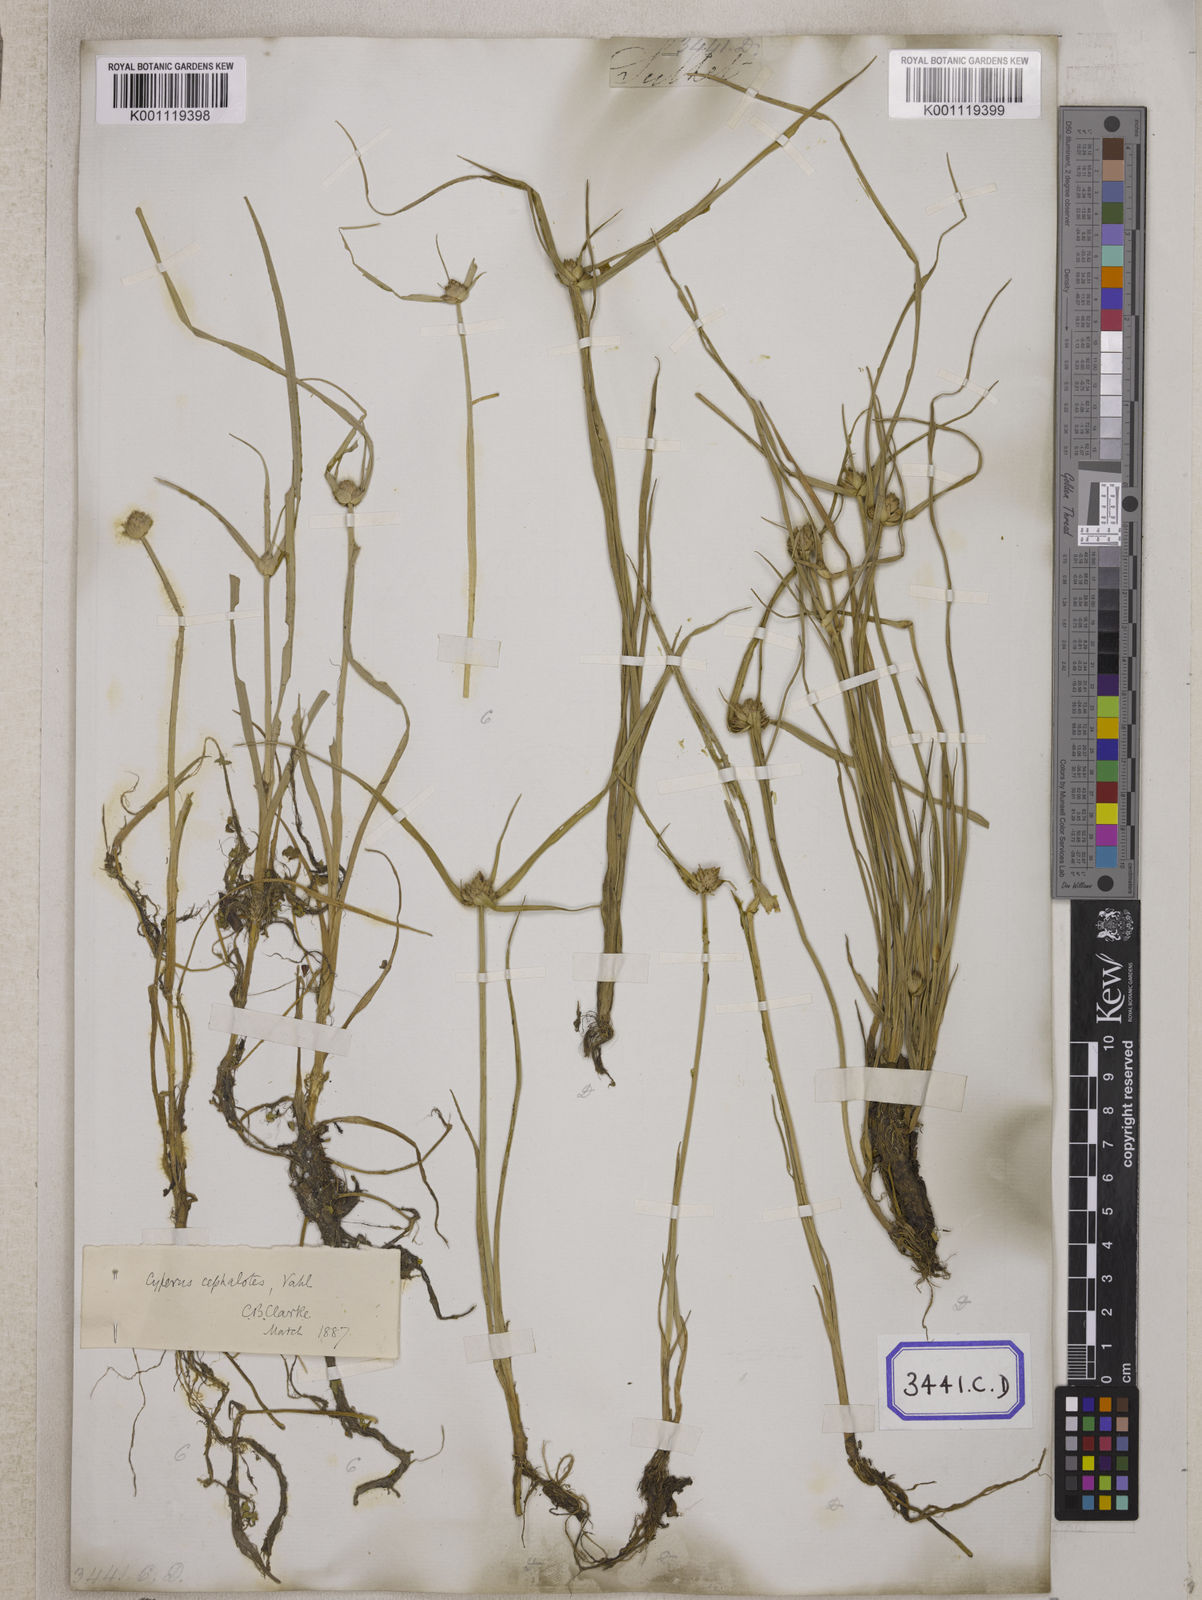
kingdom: Plantae
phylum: Tracheophyta
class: Liliopsida
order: Poales
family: Cyperaceae
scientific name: Cyperaceae
